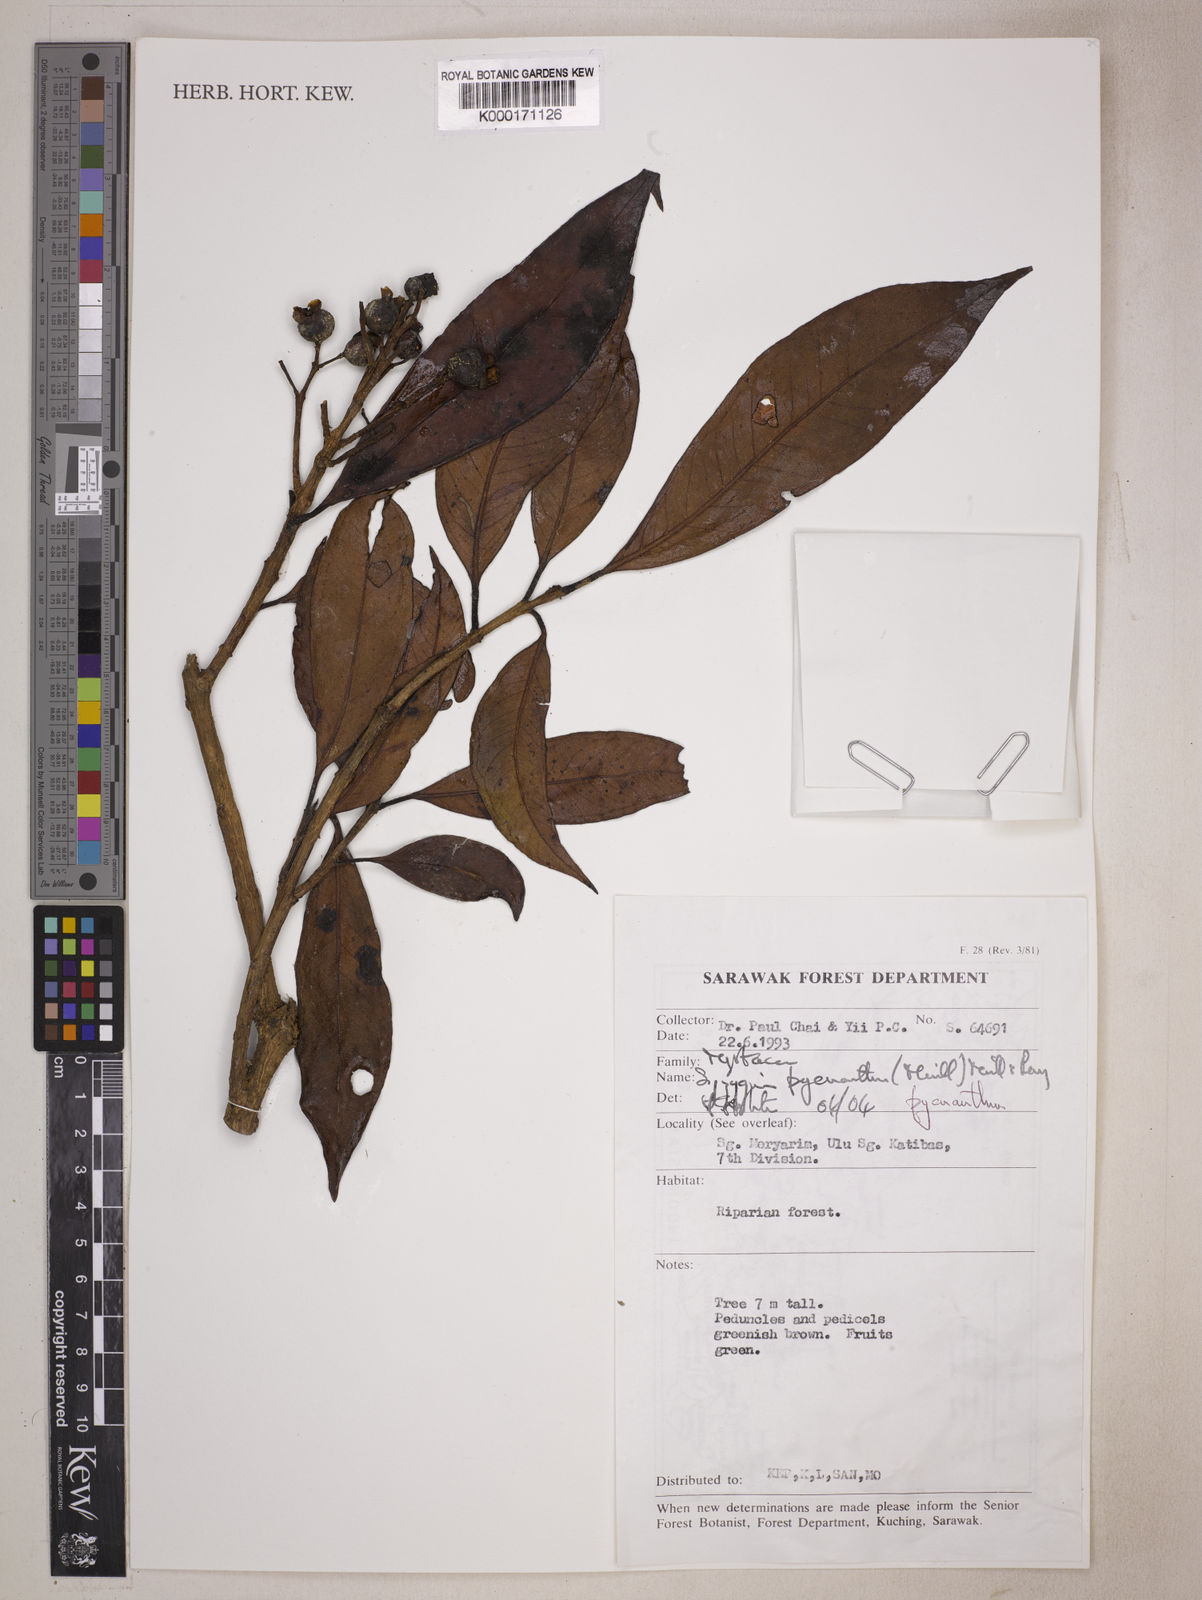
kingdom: Plantae
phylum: Tracheophyta
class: Magnoliopsida
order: Myrtales
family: Myrtaceae
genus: Syzygium
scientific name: Syzygium pycnanthum
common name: Wild rose
